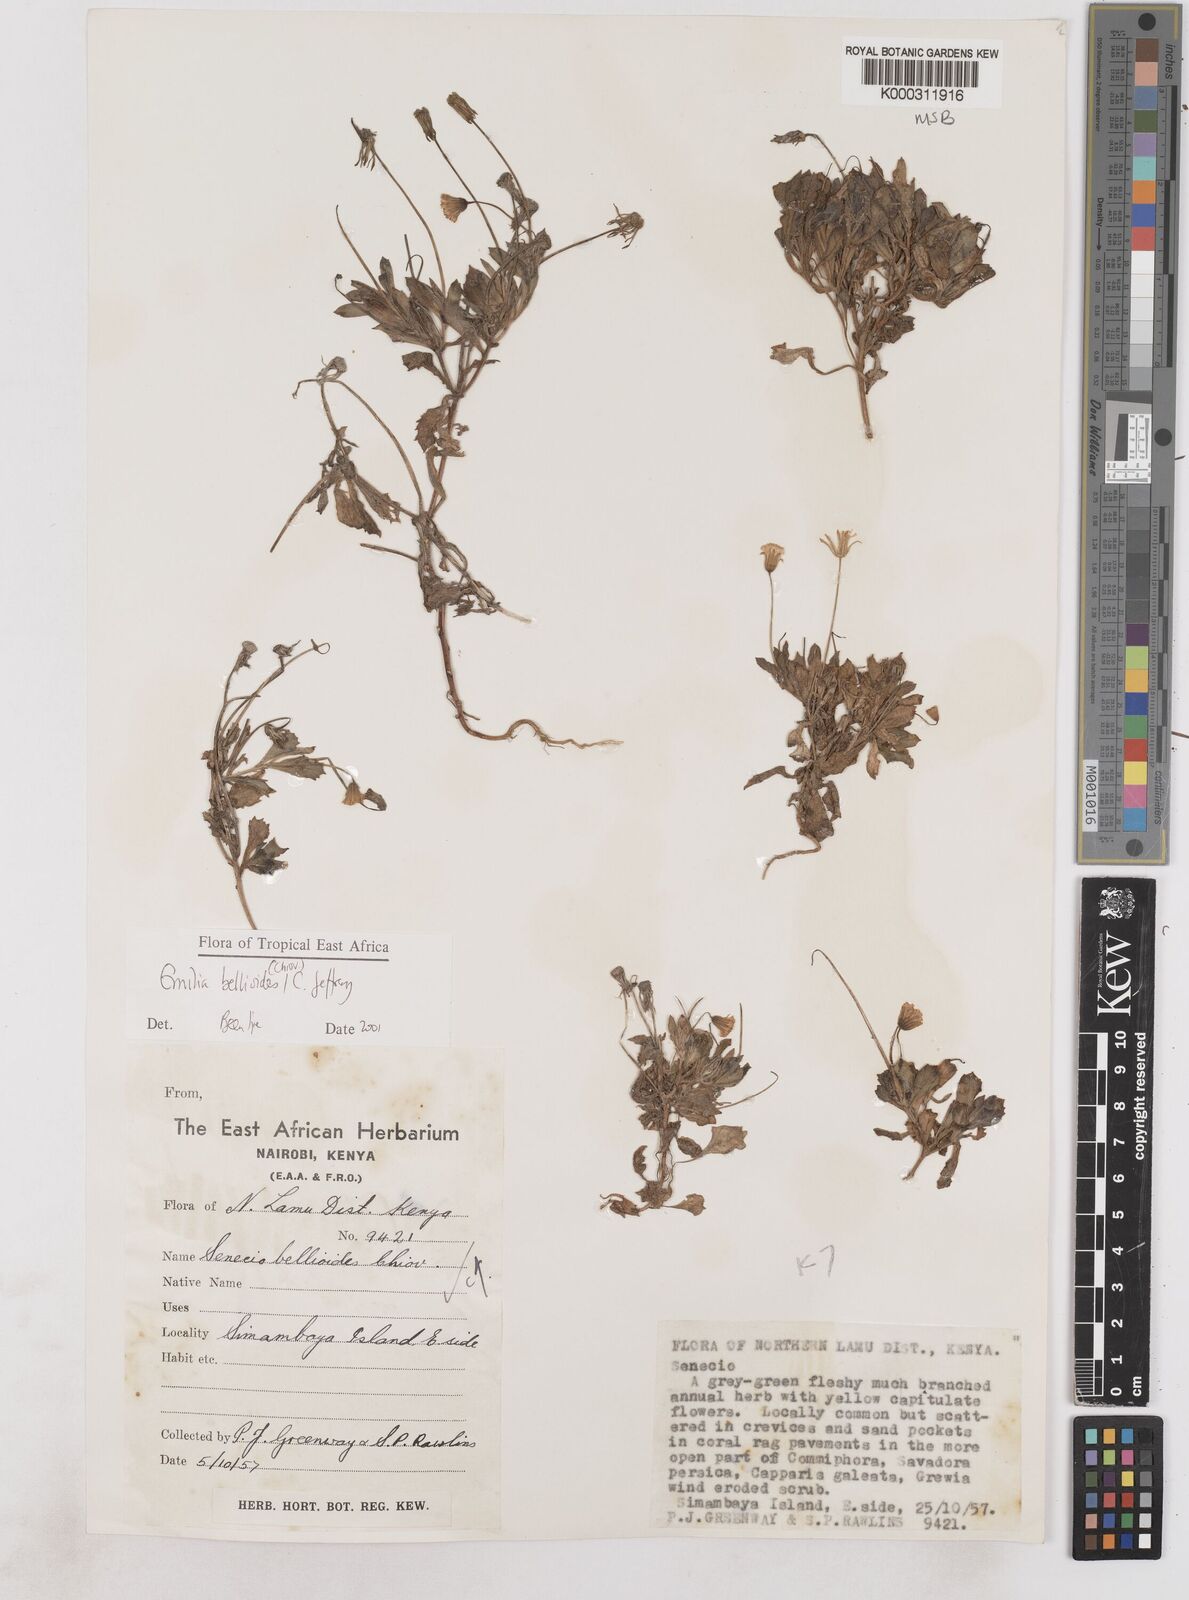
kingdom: Plantae
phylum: Tracheophyta
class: Magnoliopsida
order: Asterales
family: Asteraceae
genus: Emilia
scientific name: Emilia bellioides
